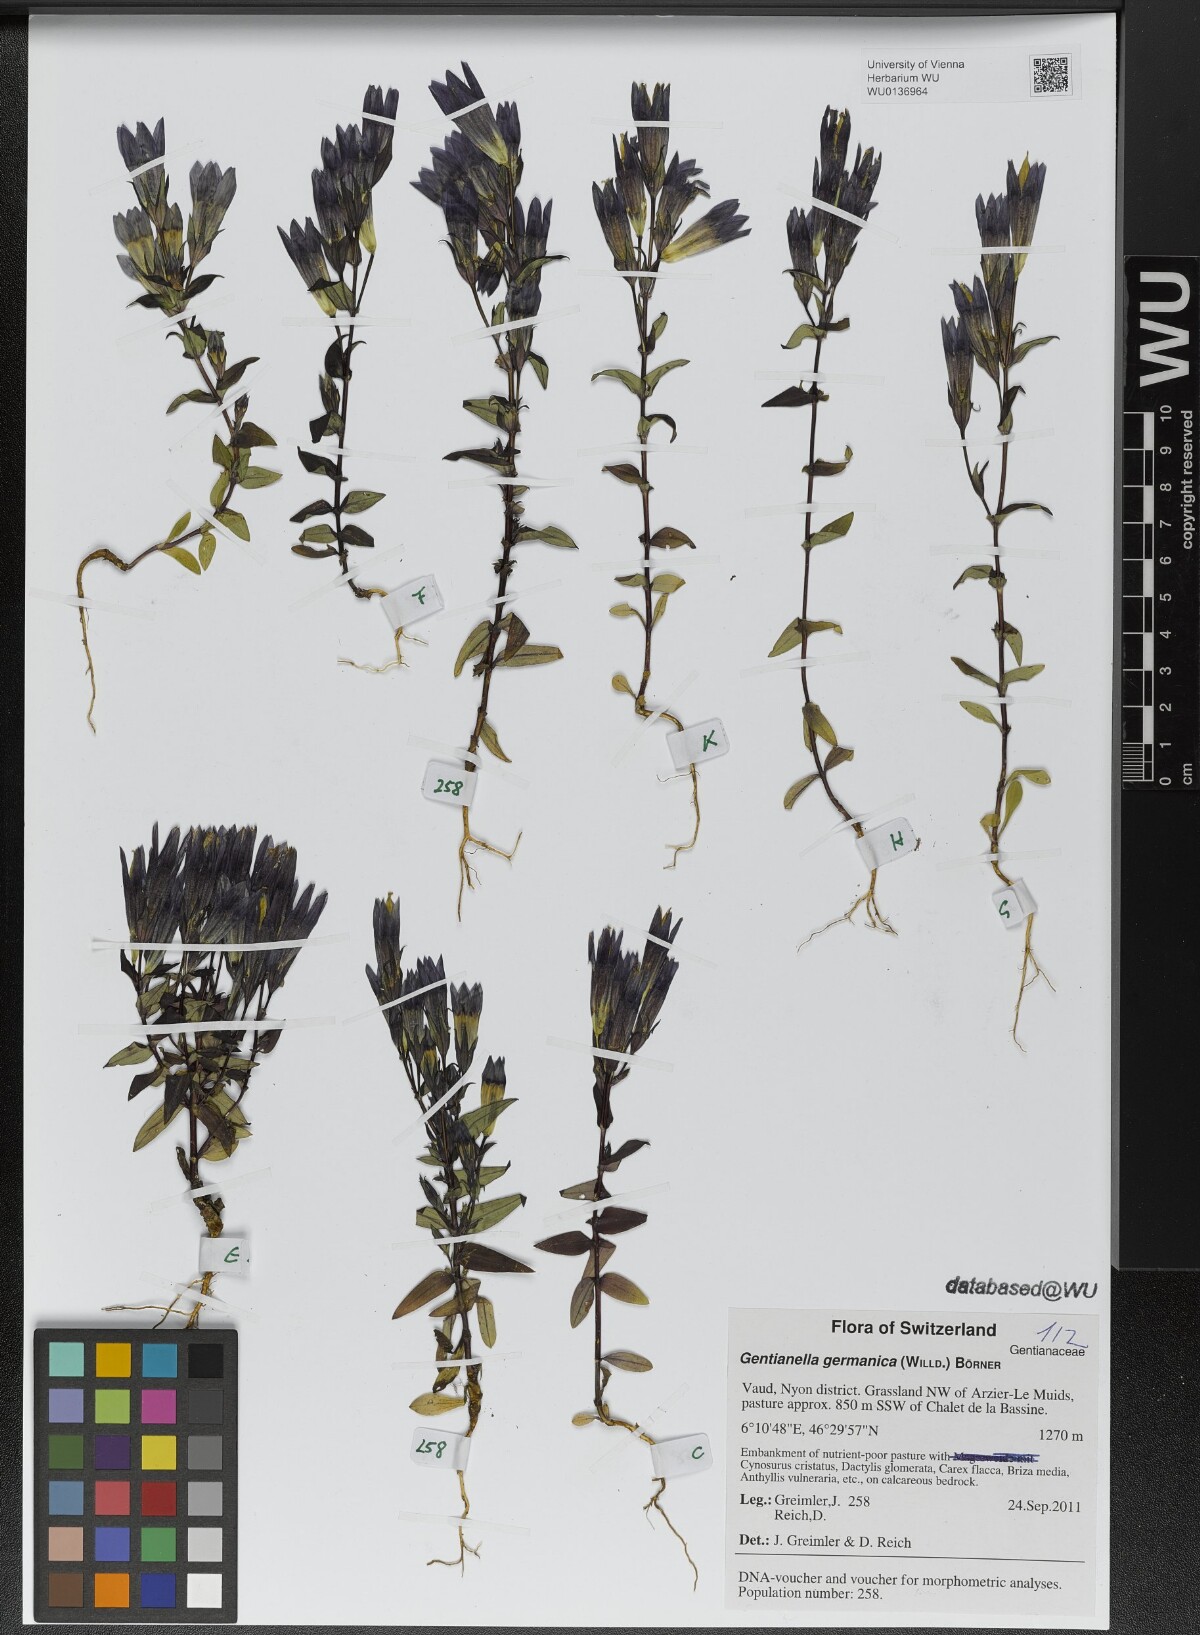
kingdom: Plantae
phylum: Tracheophyta
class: Magnoliopsida
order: Gentianales
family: Gentianaceae
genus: Gentianella
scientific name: Gentianella germanica
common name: Chiltern-gentian
